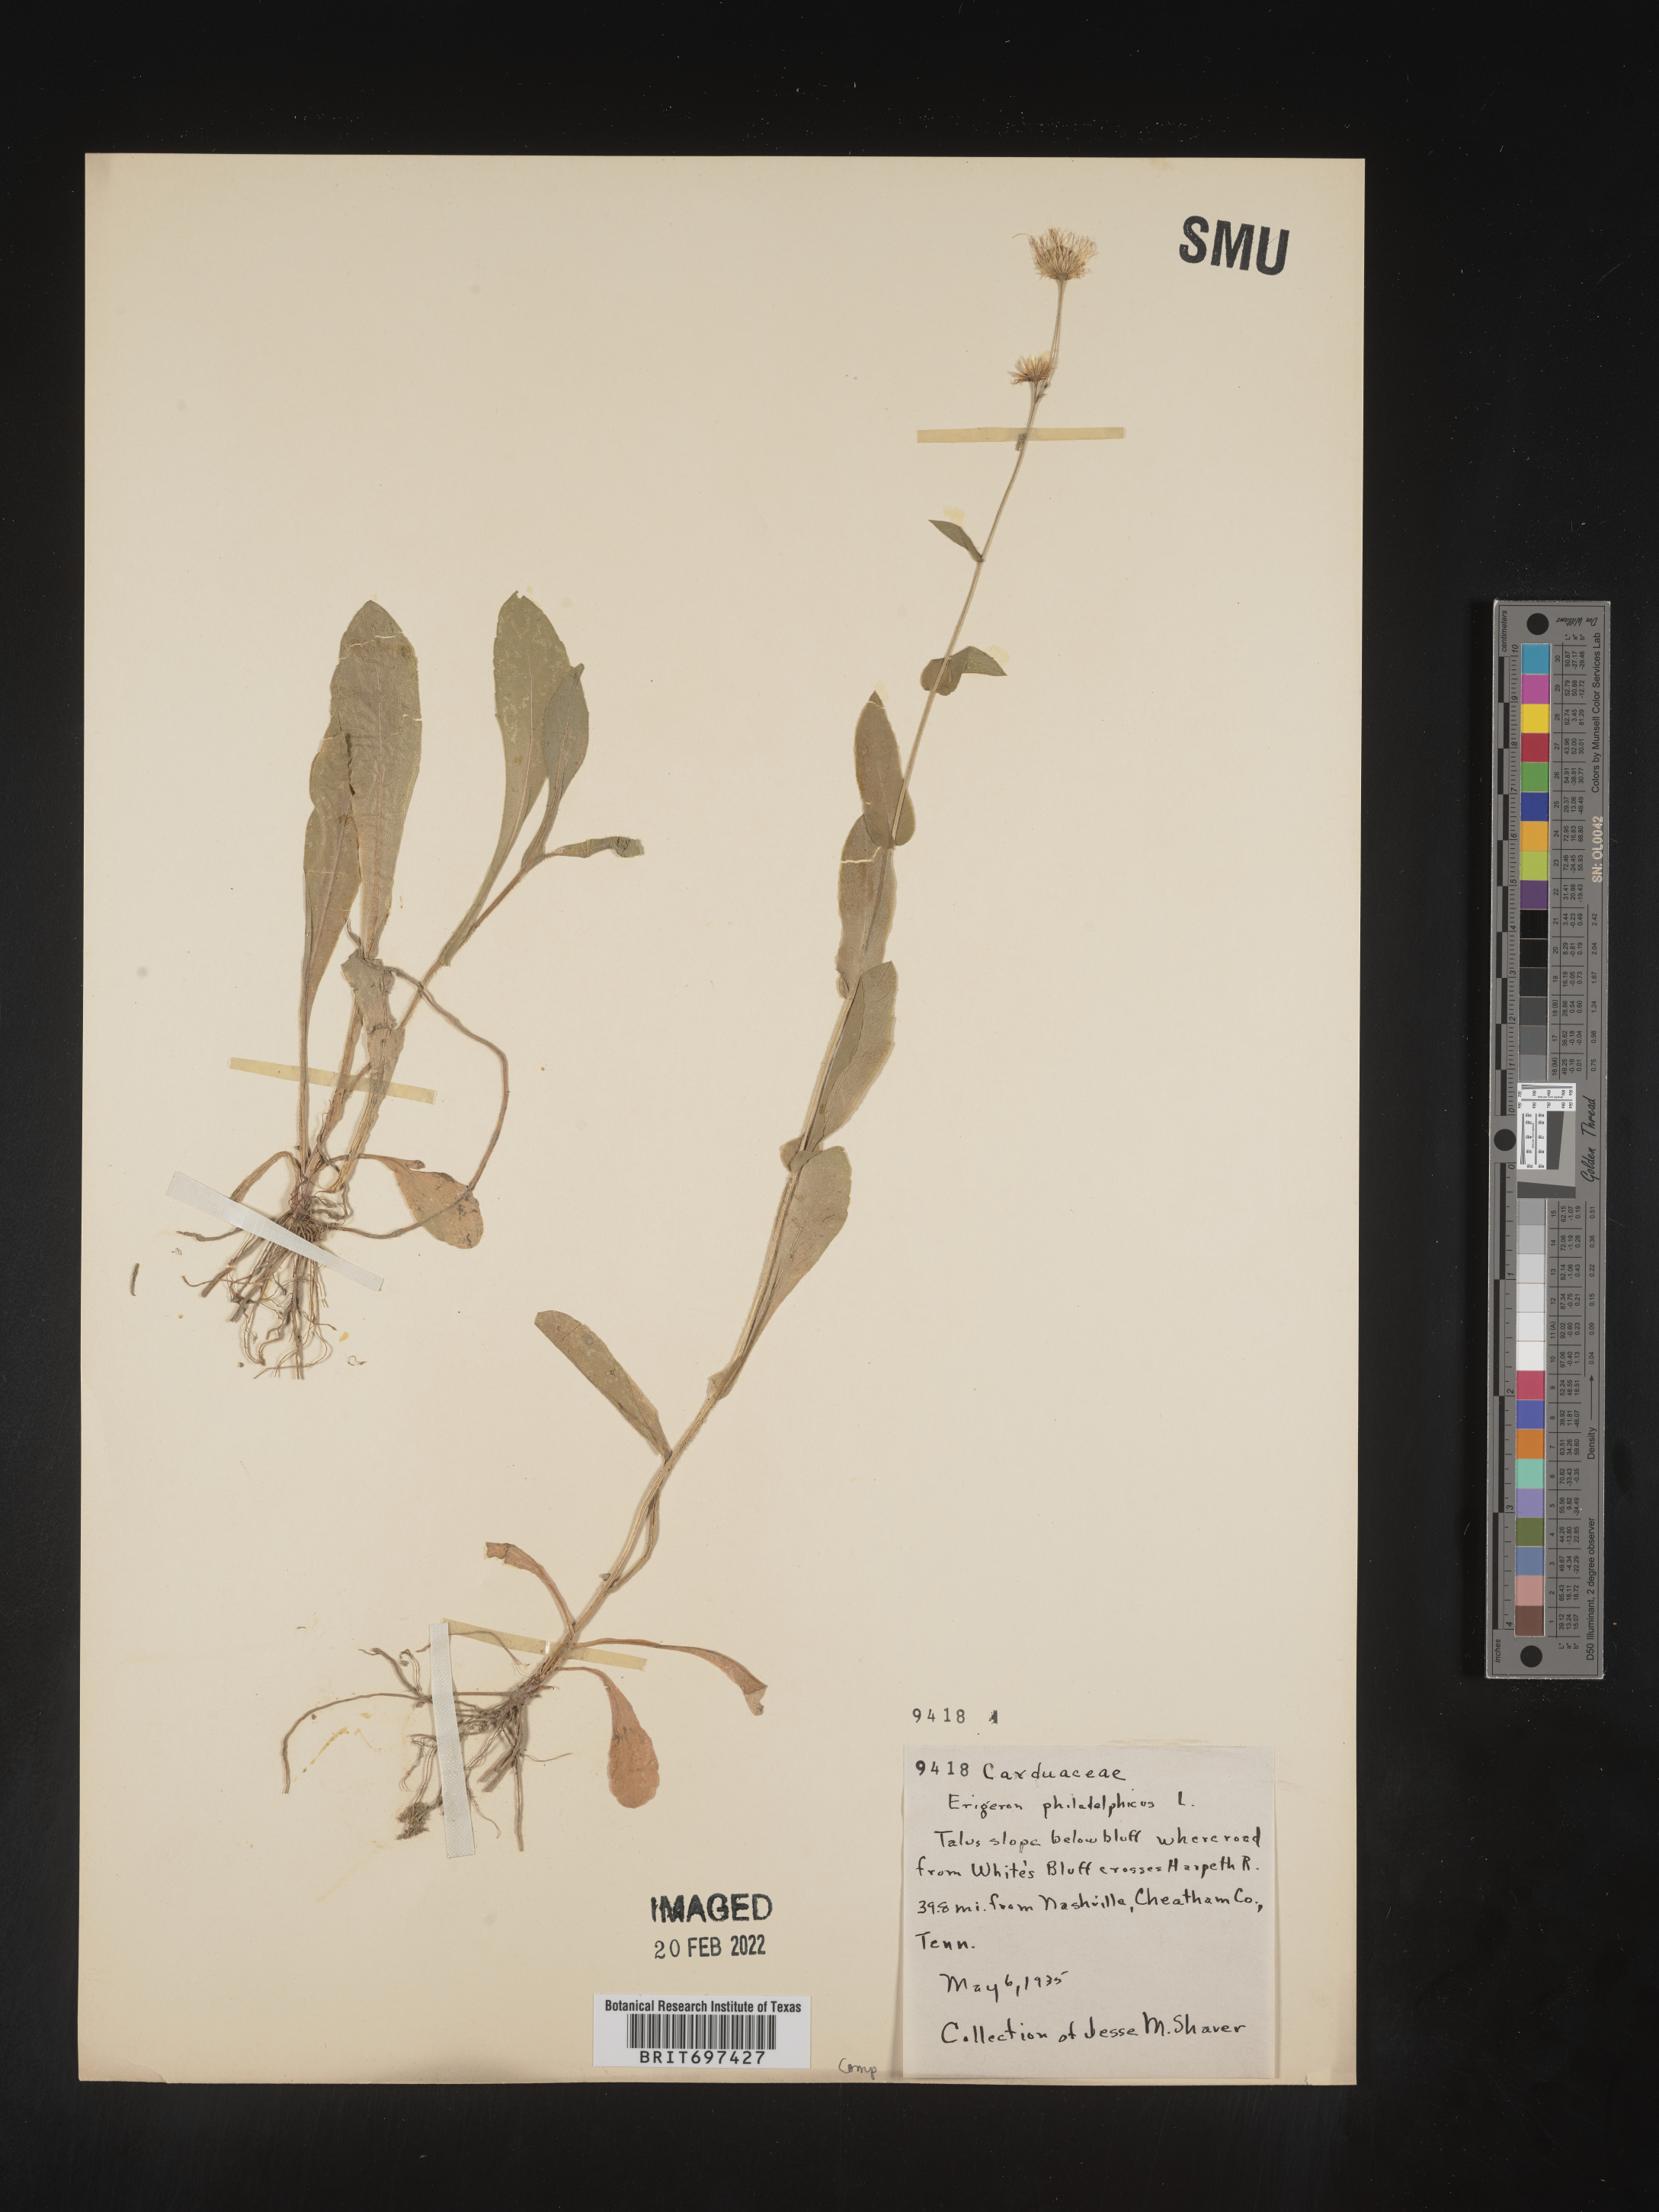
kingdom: Plantae
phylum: Tracheophyta
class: Magnoliopsida
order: Asterales
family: Asteraceae
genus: Erigeron
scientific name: Erigeron philadelphicus
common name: Robin's-plantain
